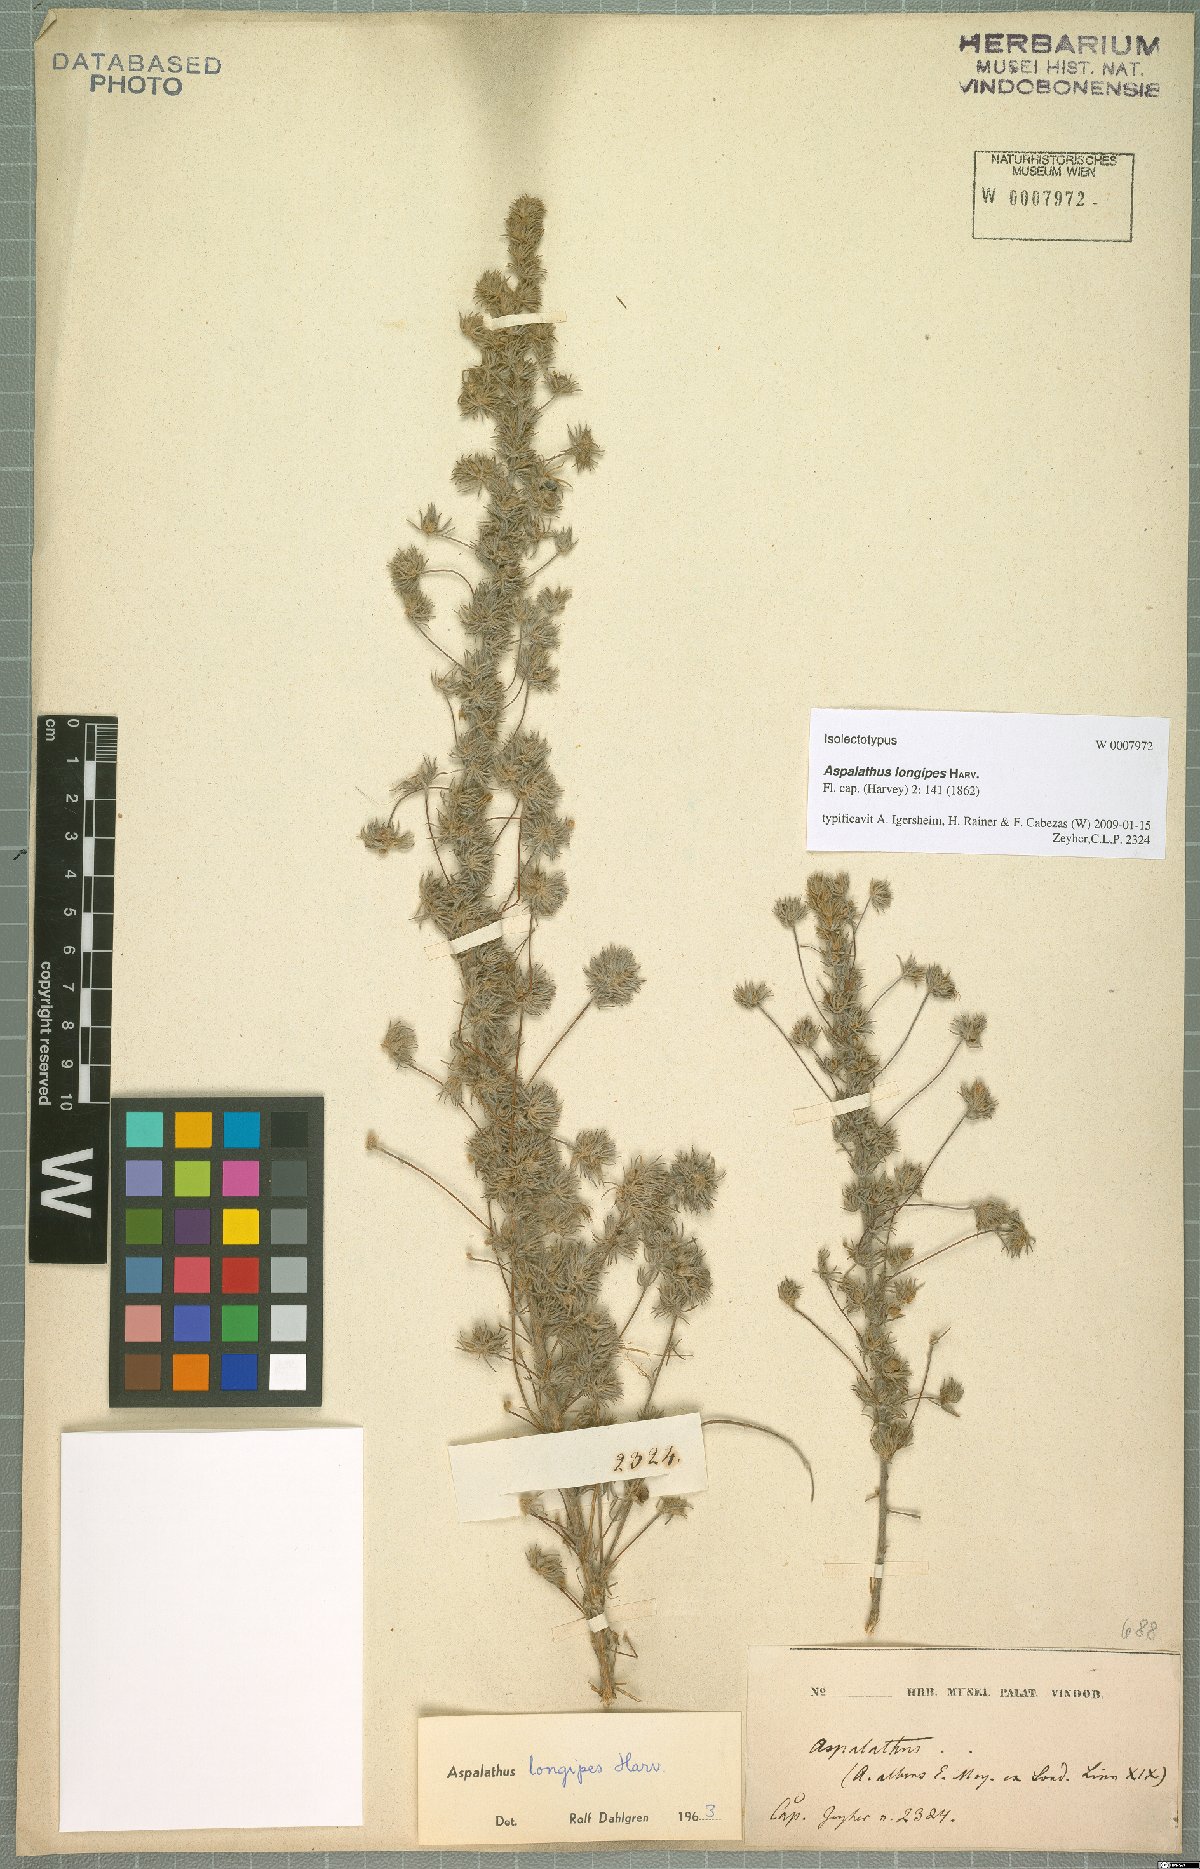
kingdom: Plantae
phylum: Tracheophyta
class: Magnoliopsida
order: Fabales
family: Fabaceae
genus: Aspalathus
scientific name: Aspalathus longipes
